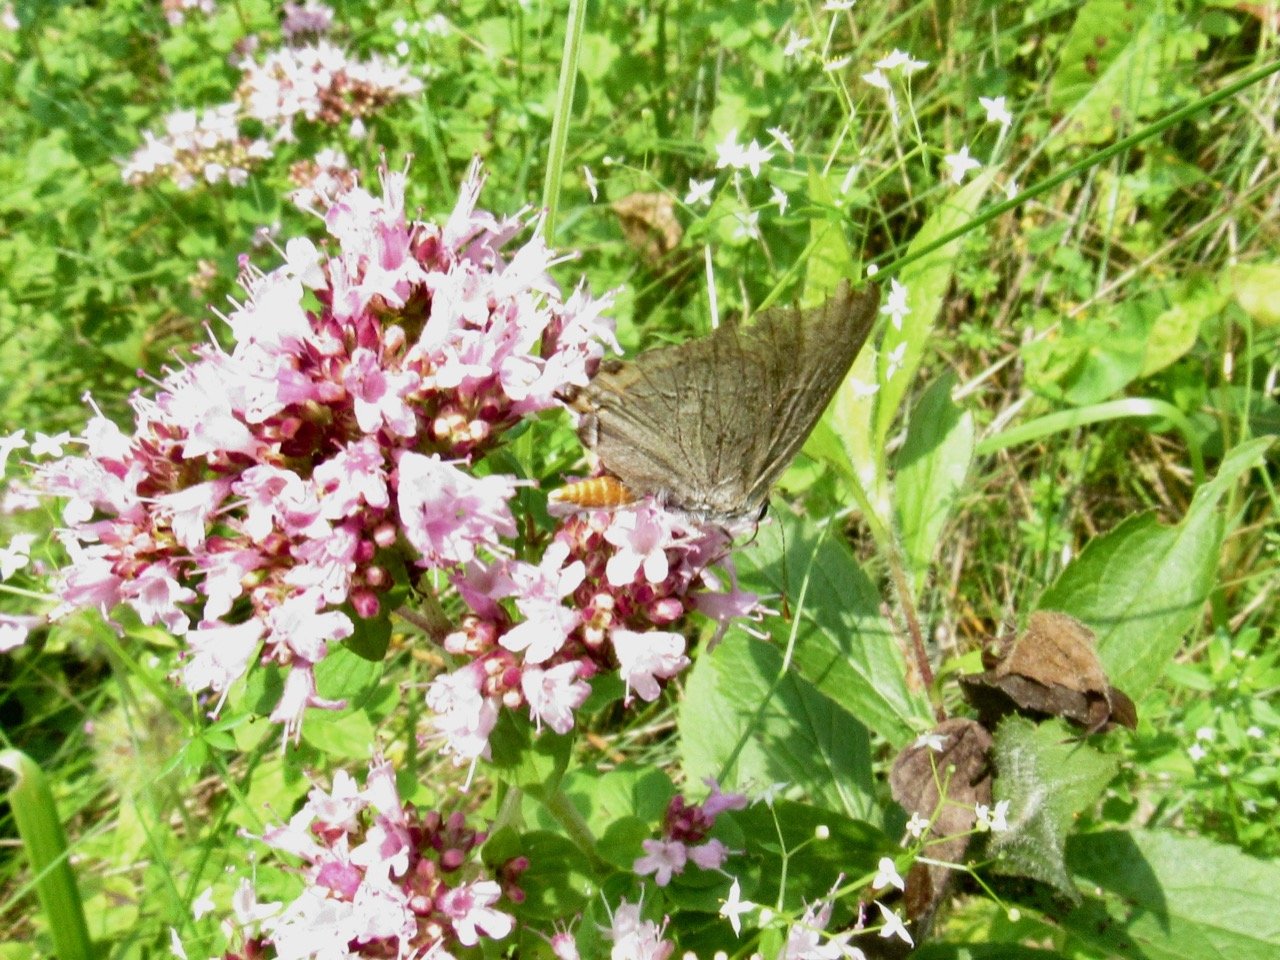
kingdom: Animalia
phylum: Arthropoda
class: Insecta
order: Lepidoptera
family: Lycaenidae
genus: Strymon
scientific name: Strymon melinus
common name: Gray Hairstreak
